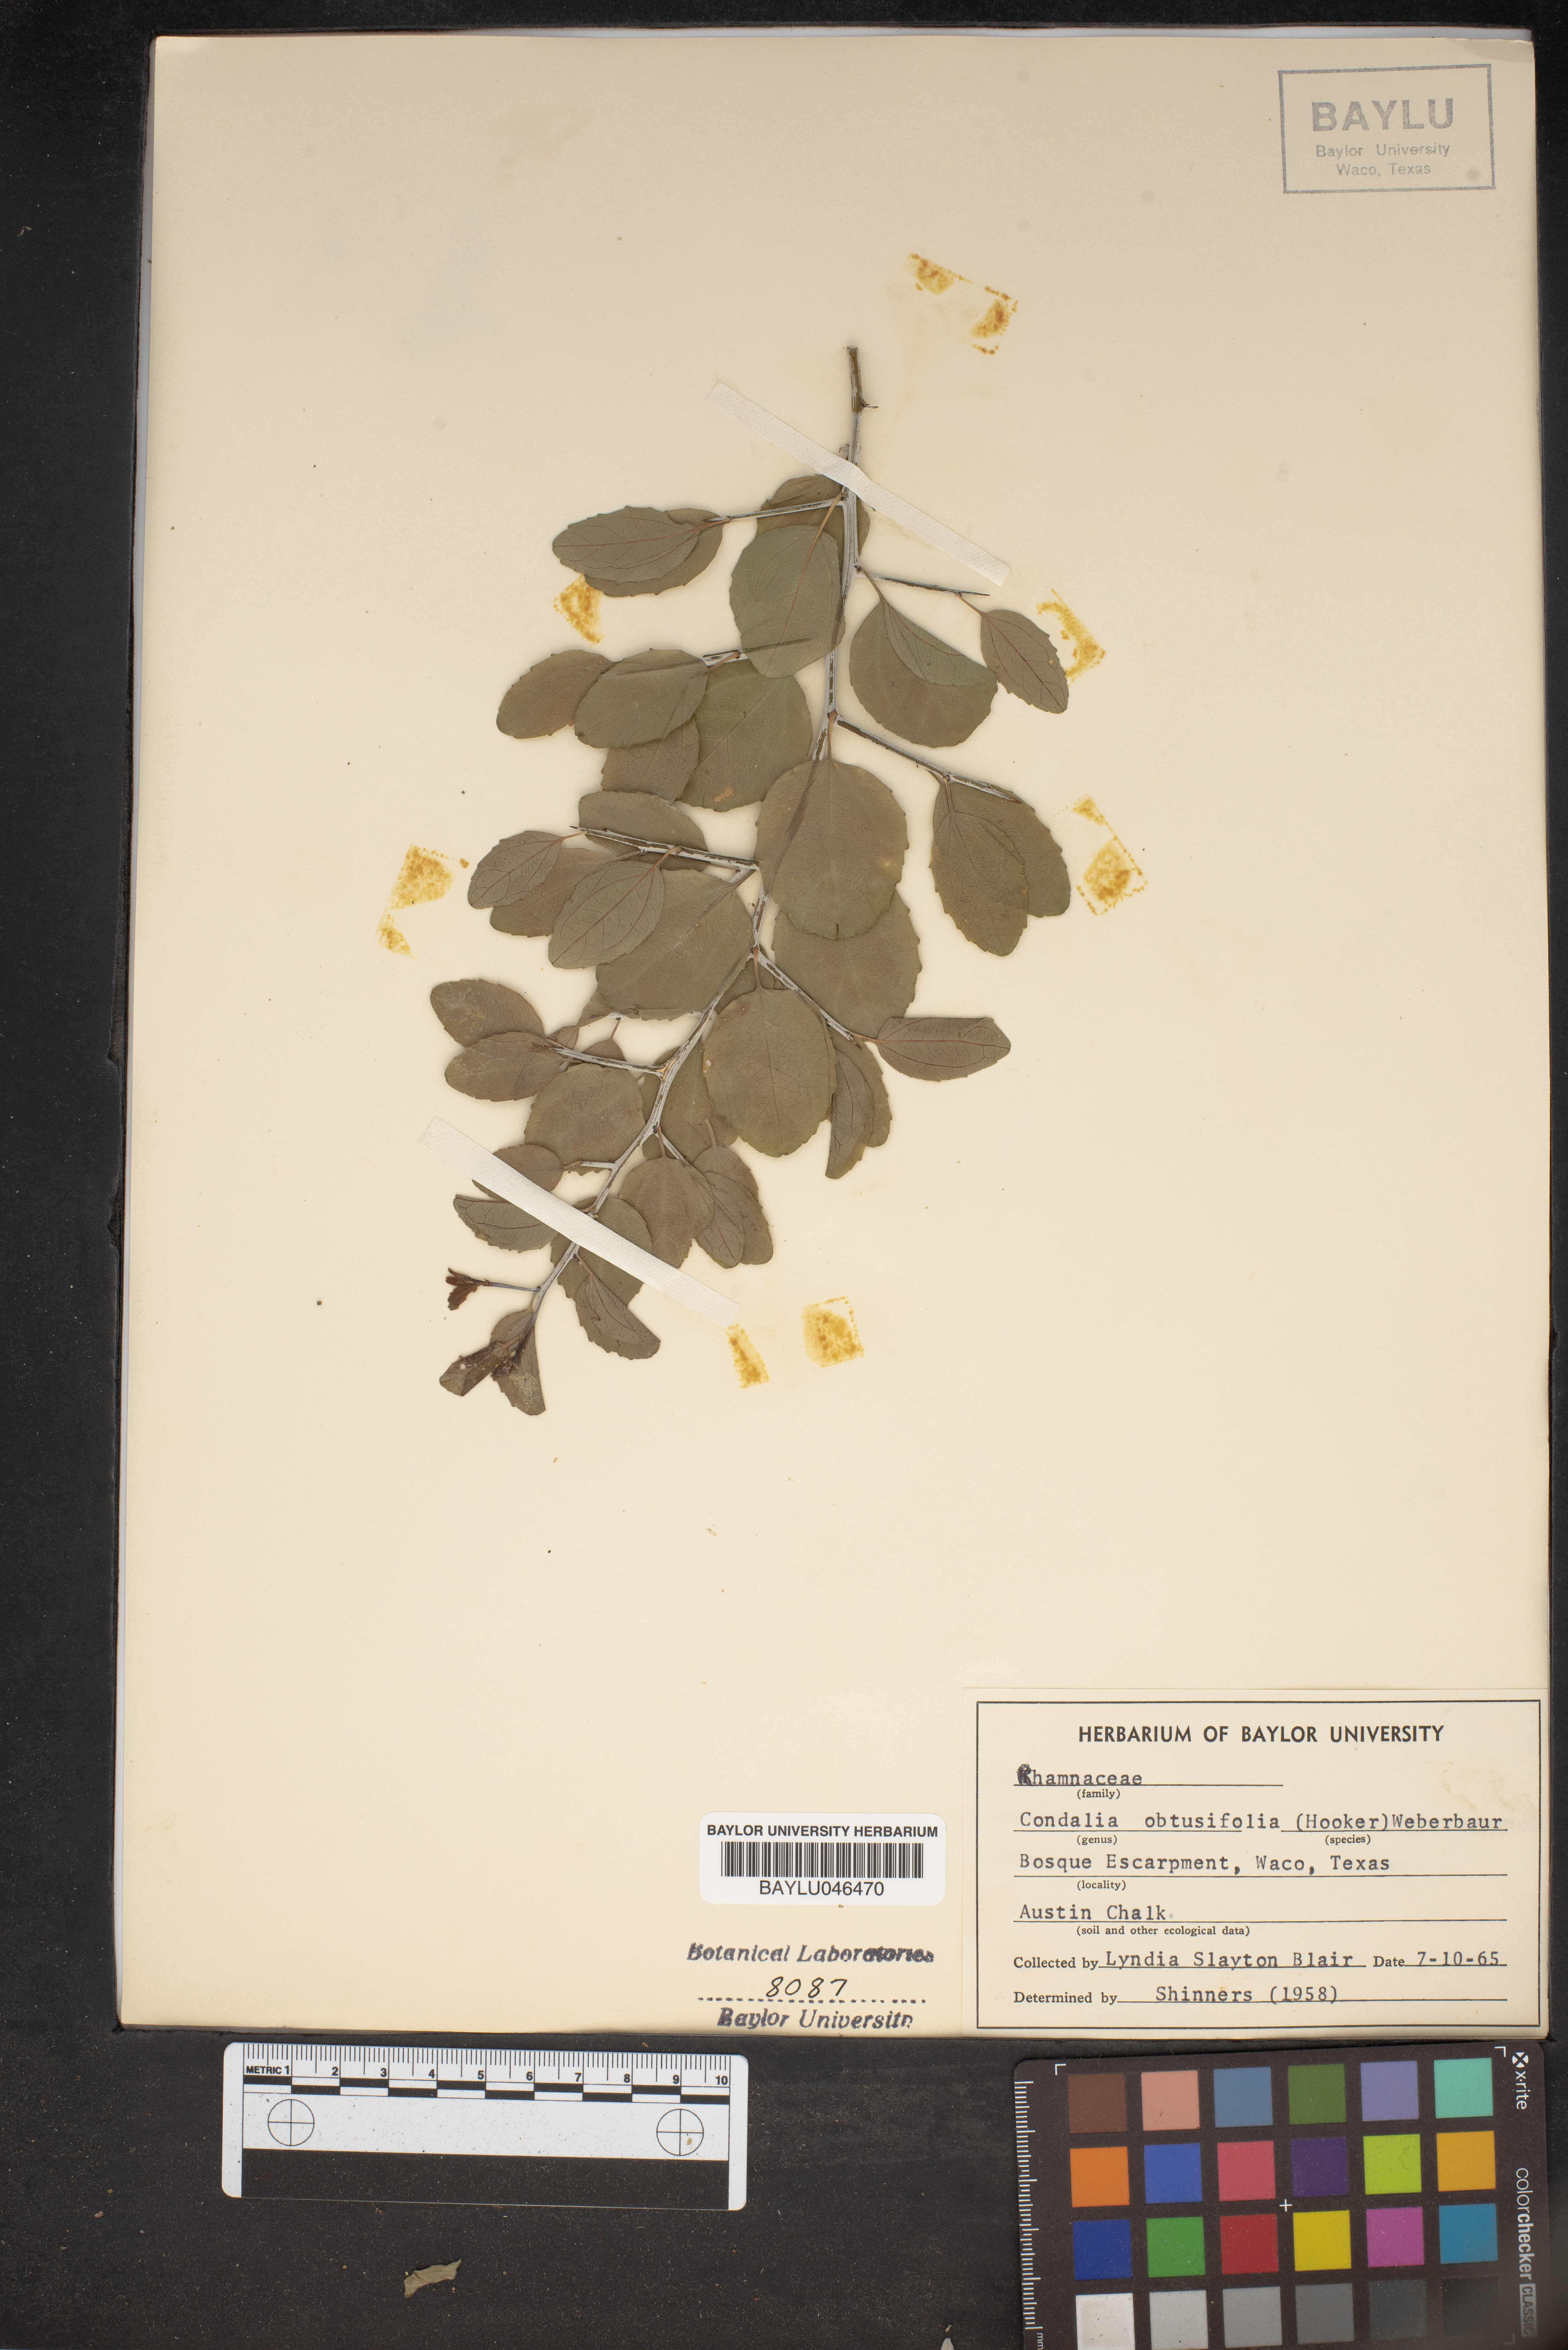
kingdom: Plantae
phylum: Tracheophyta
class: Magnoliopsida
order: Rosales
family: Rhamnaceae
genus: Sarcomphalus
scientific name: Sarcomphalus obtusifolius
